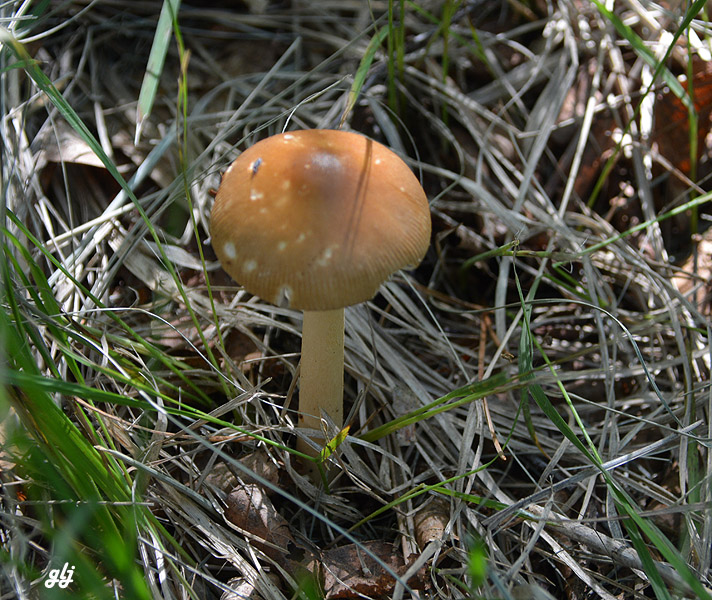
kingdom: Fungi
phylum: Basidiomycota
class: Agaricomycetes
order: Agaricales
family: Amanitaceae
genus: Amanita
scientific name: Amanita fulva
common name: brun kam-fluesvamp
